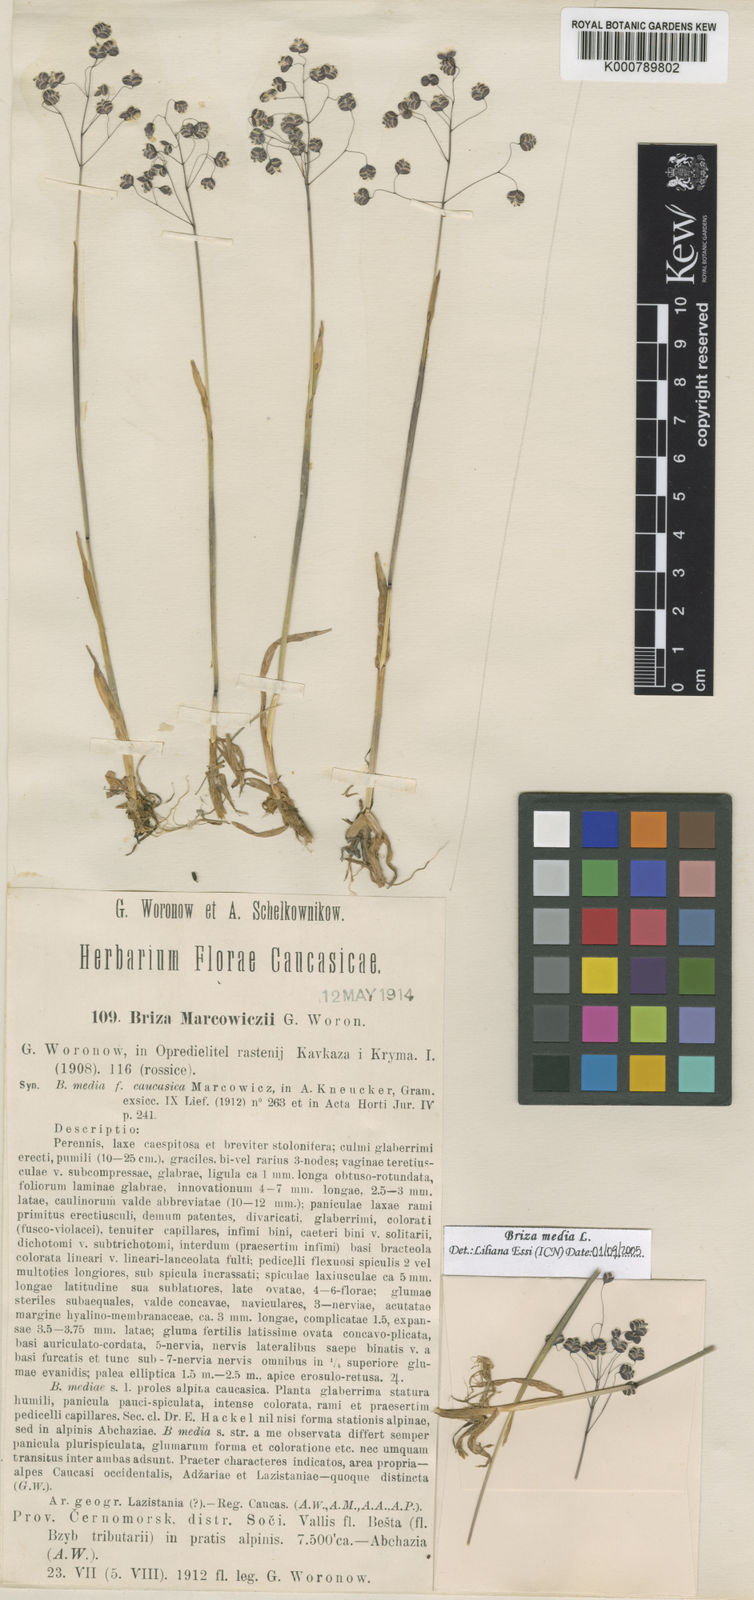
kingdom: Plantae
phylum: Tracheophyta
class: Liliopsida
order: Poales
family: Poaceae
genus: Briza
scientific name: Briza marcowiczii
